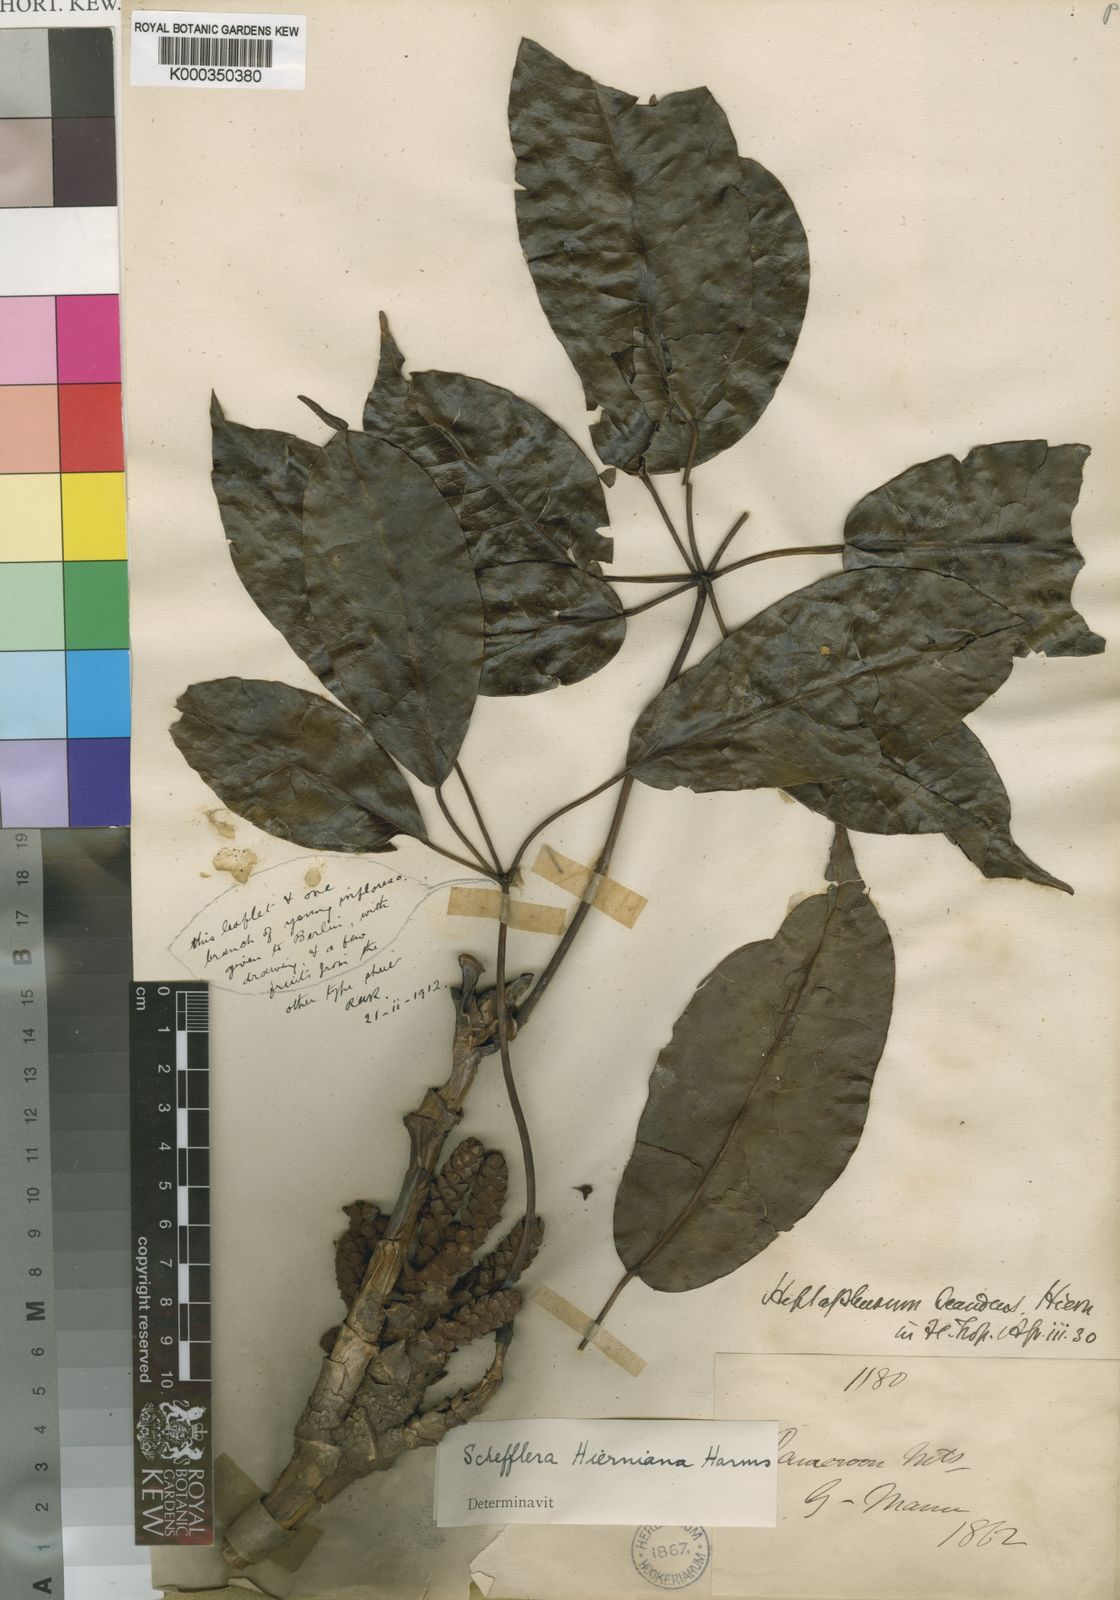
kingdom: Plantae
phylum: Tracheophyta
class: Magnoliopsida
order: Apiales
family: Araliaceae
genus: Astropanax
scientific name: Astropanax barteri
